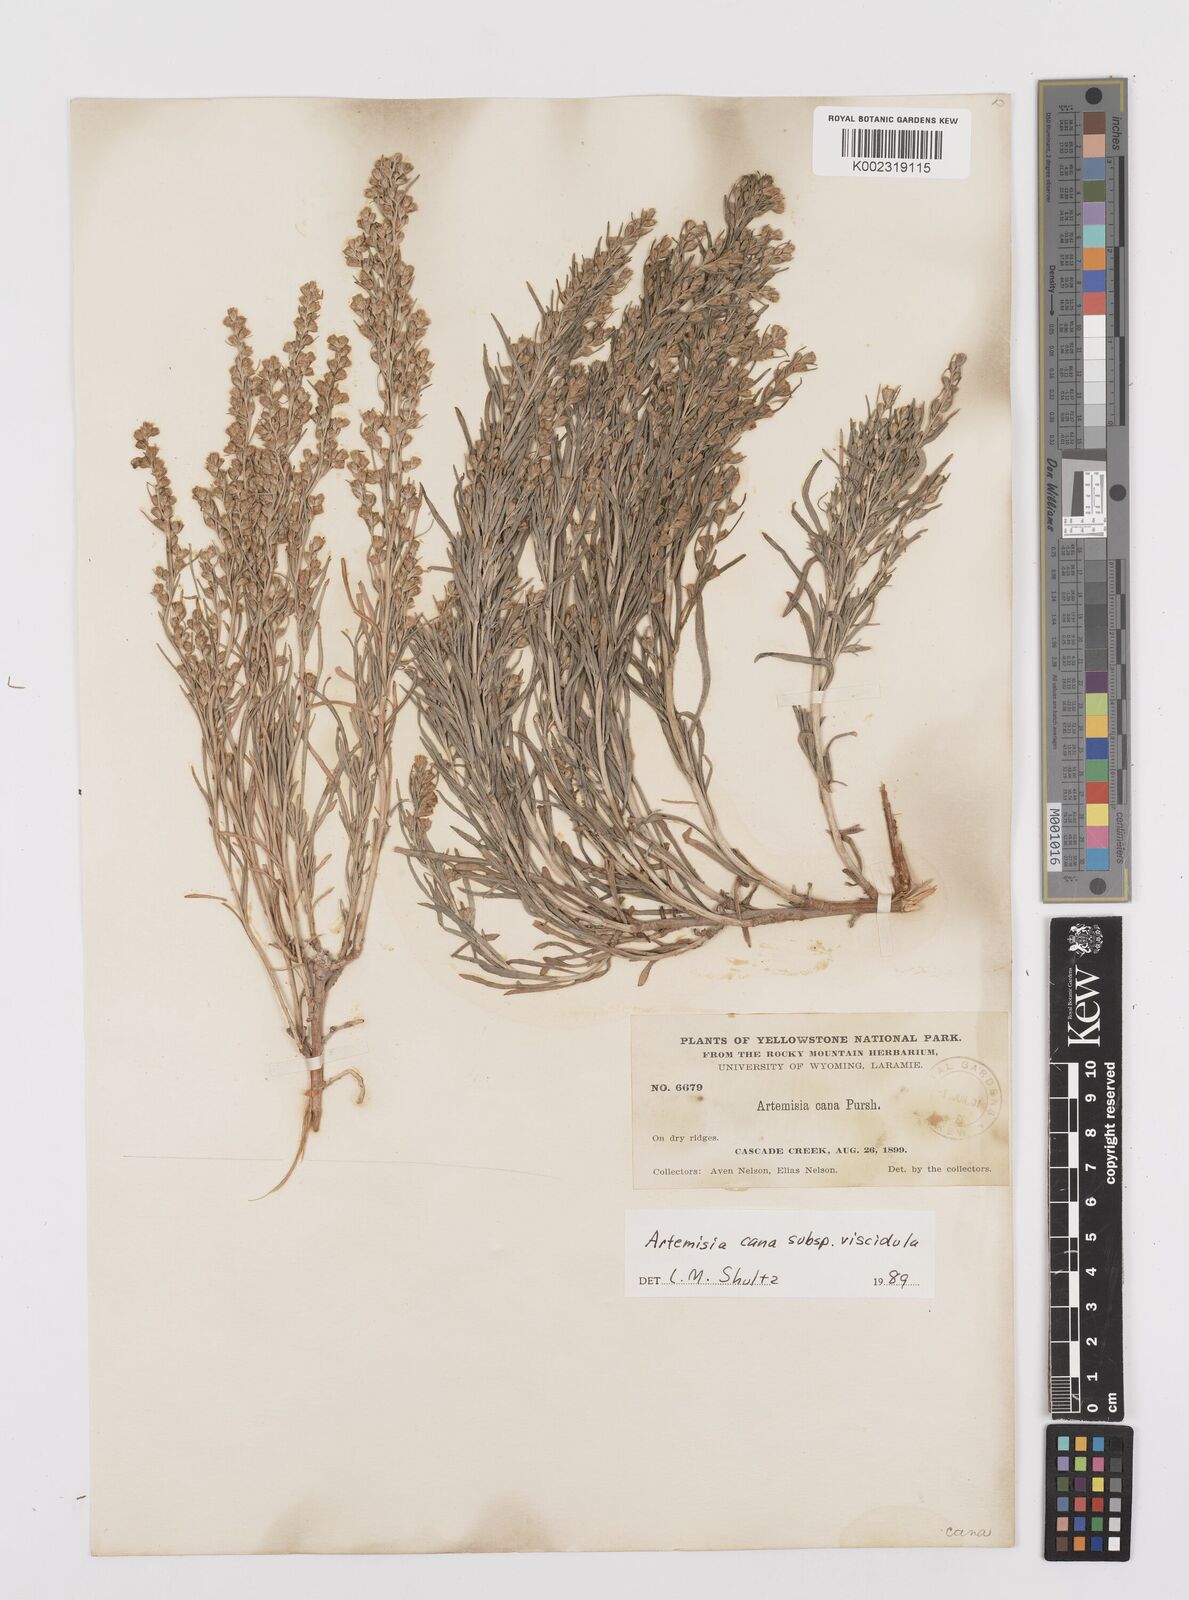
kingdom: Plantae
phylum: Tracheophyta
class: Magnoliopsida
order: Asterales
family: Asteraceae
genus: Artemisia
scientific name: Artemisia cana
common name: Silver sagebrush
